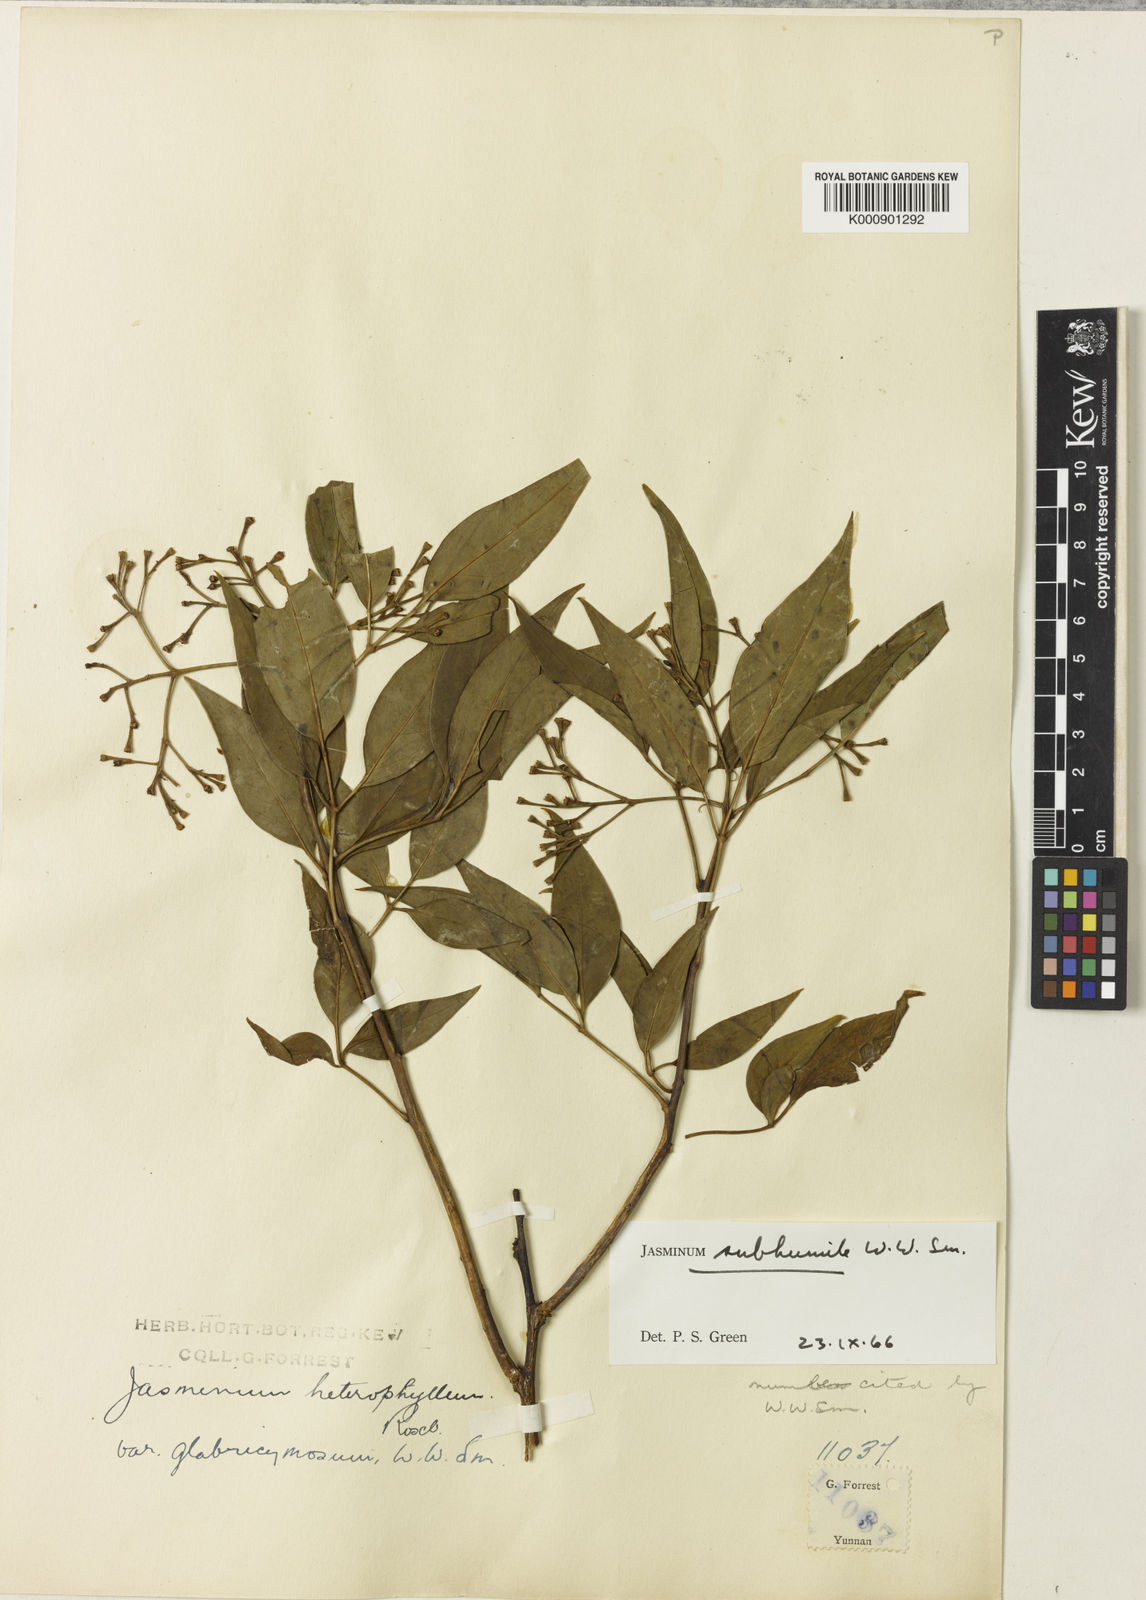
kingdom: Plantae
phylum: Tracheophyta
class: Magnoliopsida
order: Lamiales
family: Oleaceae
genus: Chrysojasminum
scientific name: Chrysojasminum subhumile
